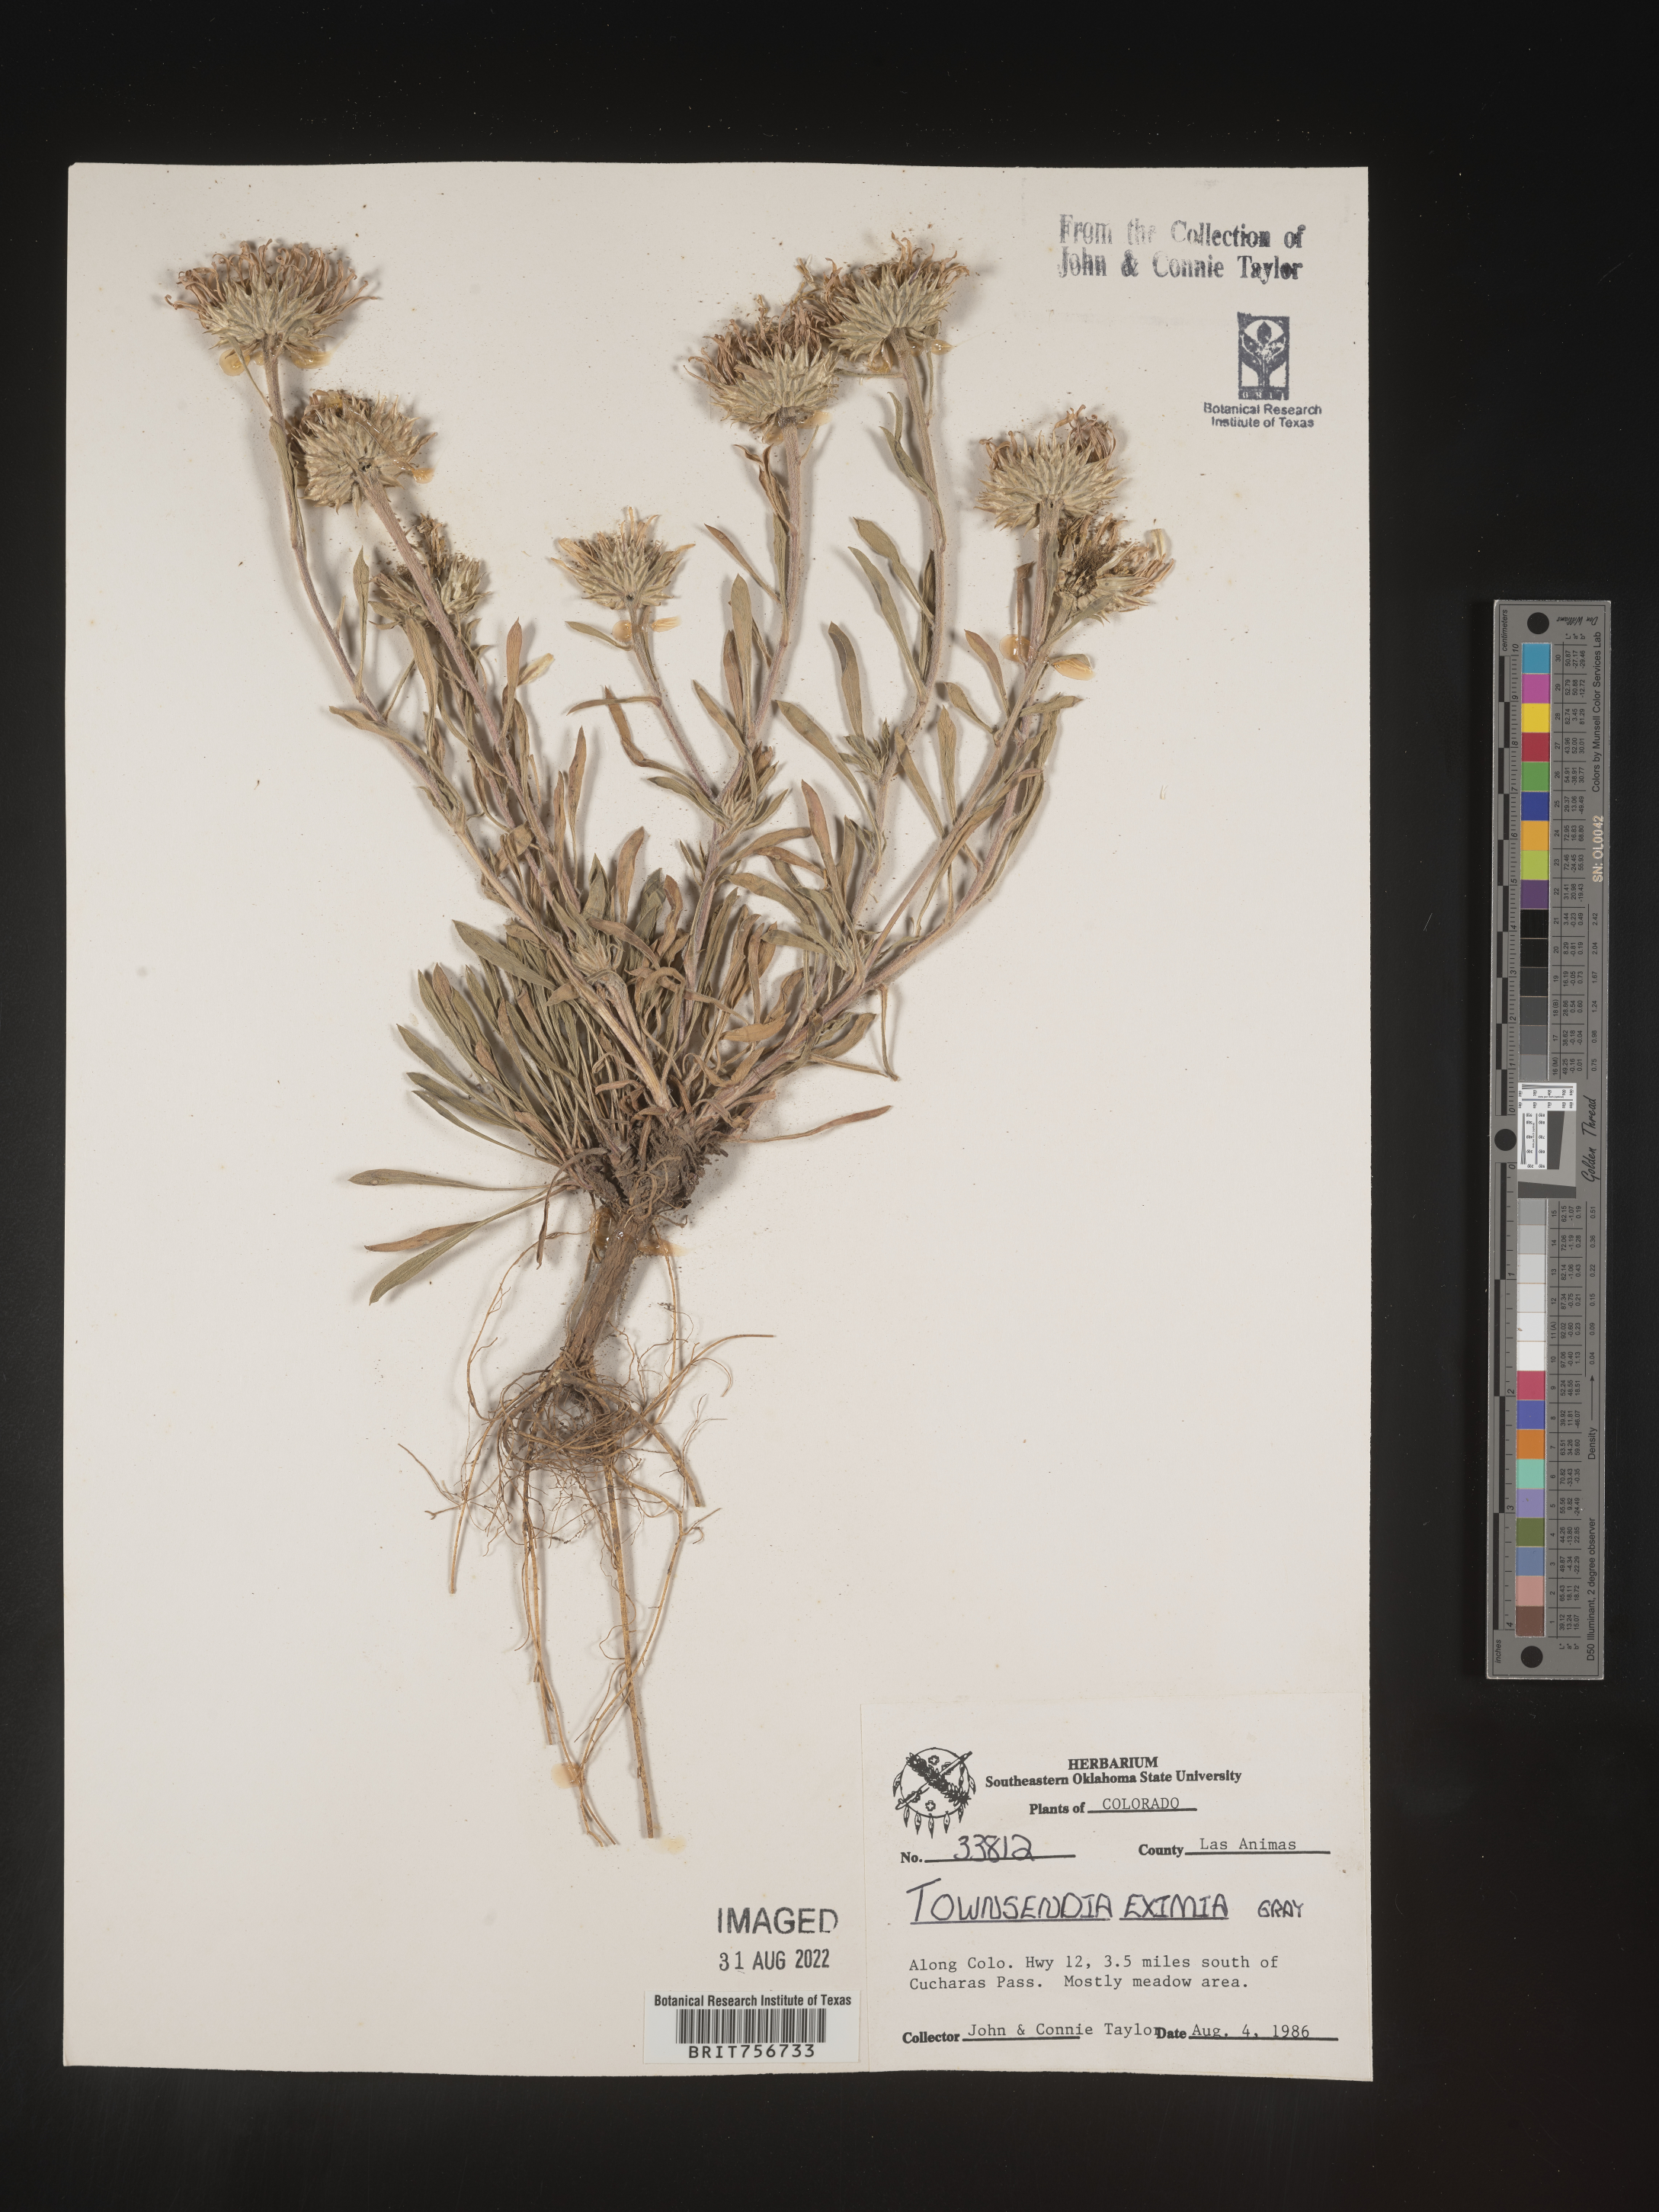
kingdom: Plantae
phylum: Tracheophyta
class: Magnoliopsida
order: Asterales
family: Asteraceae
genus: Townsendia
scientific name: Townsendia eximia
